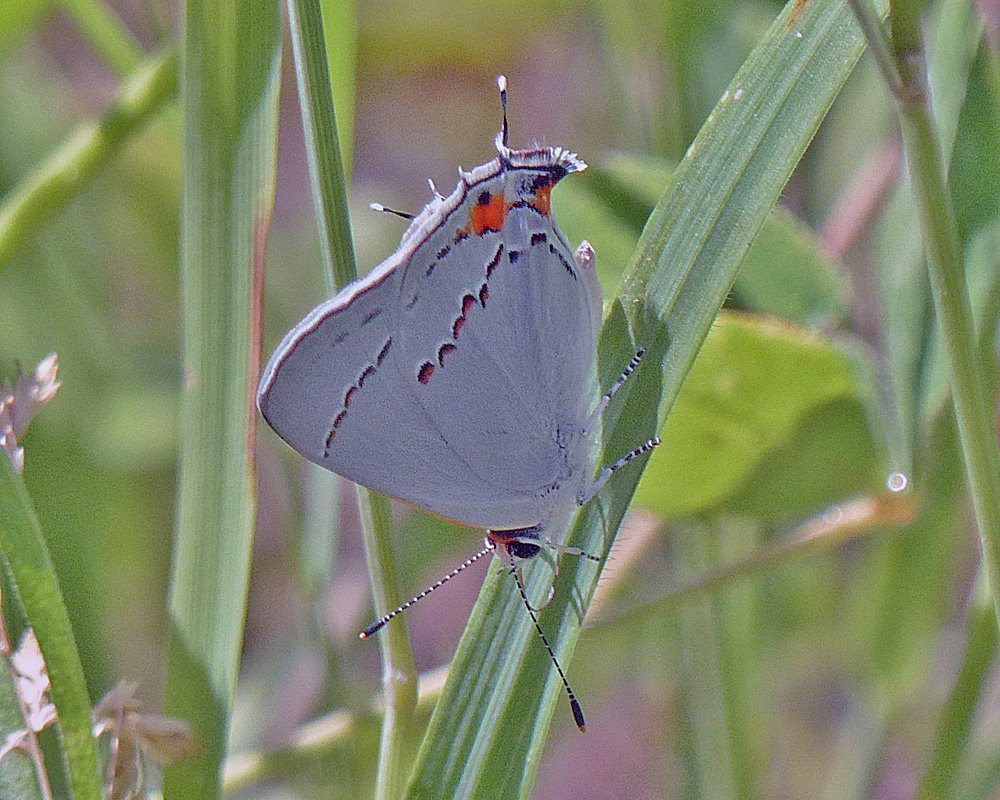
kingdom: Animalia
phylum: Arthropoda
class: Insecta
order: Lepidoptera
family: Lycaenidae
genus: Strymon
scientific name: Strymon melinus
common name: Gray Hairstreak
